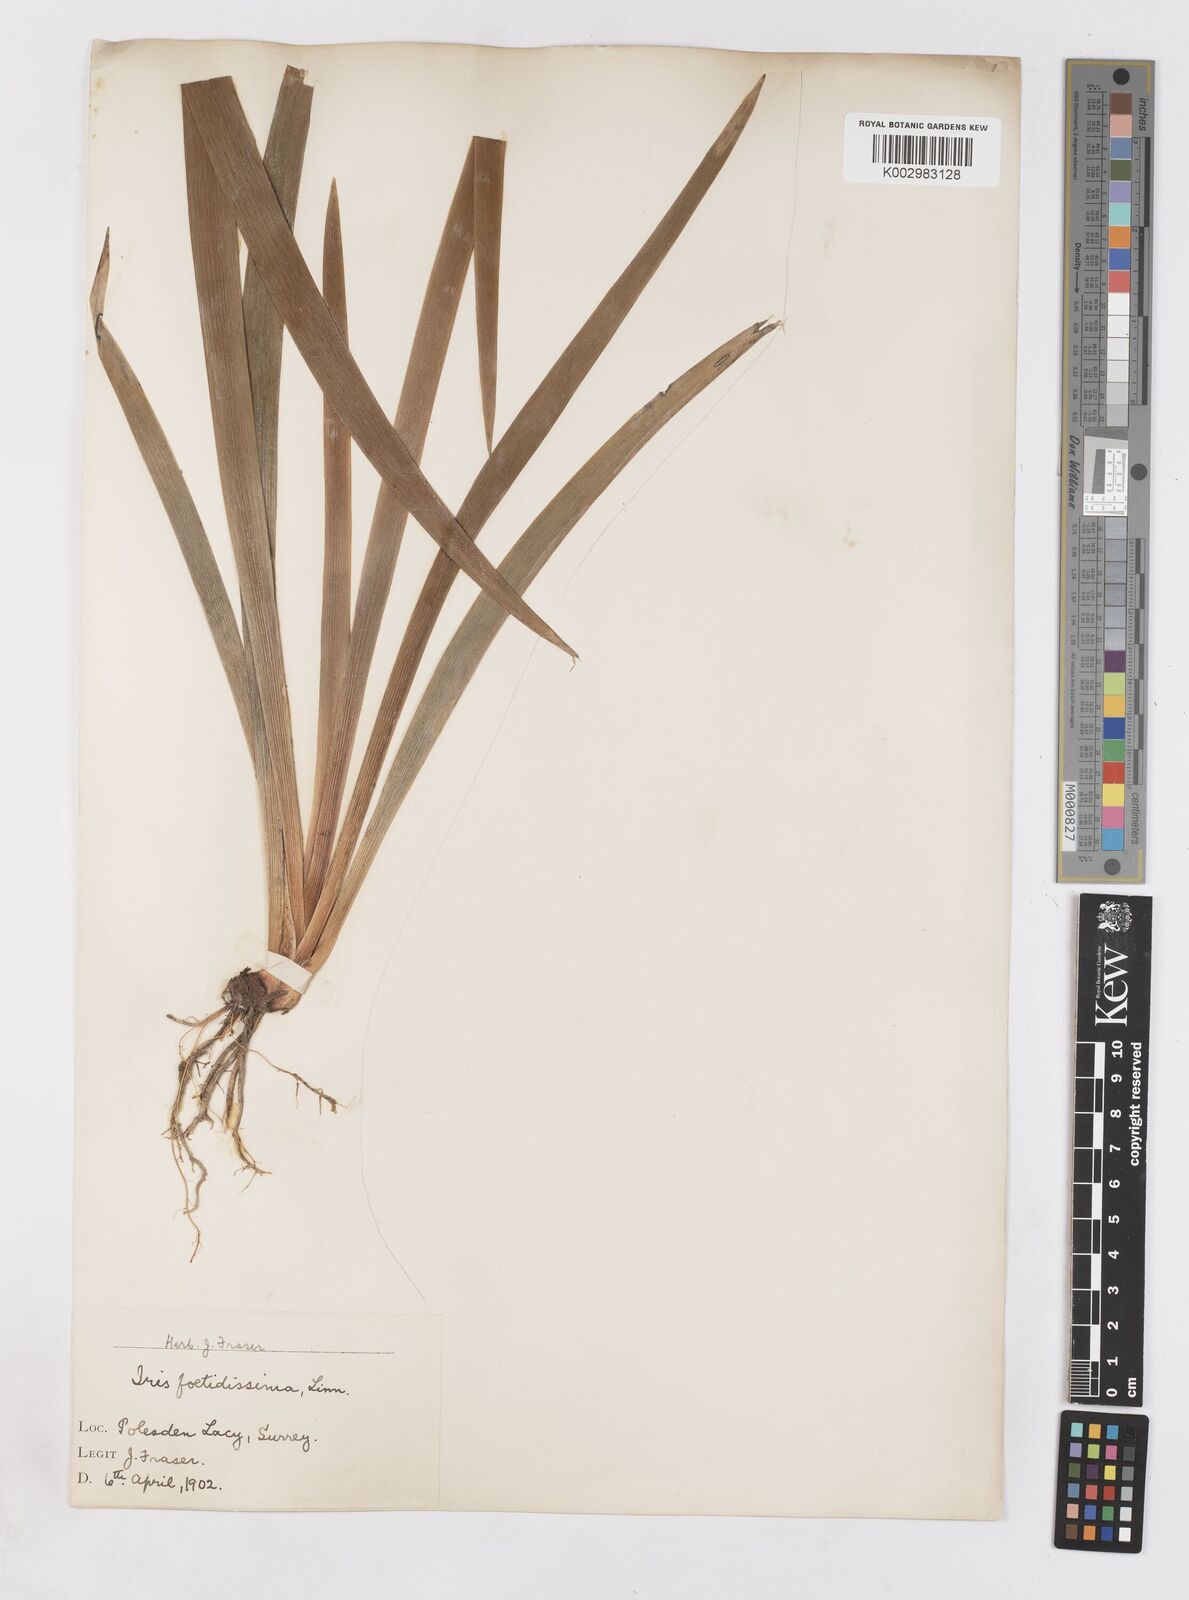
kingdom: Plantae
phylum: Tracheophyta
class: Liliopsida
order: Asparagales
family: Iridaceae
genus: Iris
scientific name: Iris foetidissima
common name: Stinking iris
